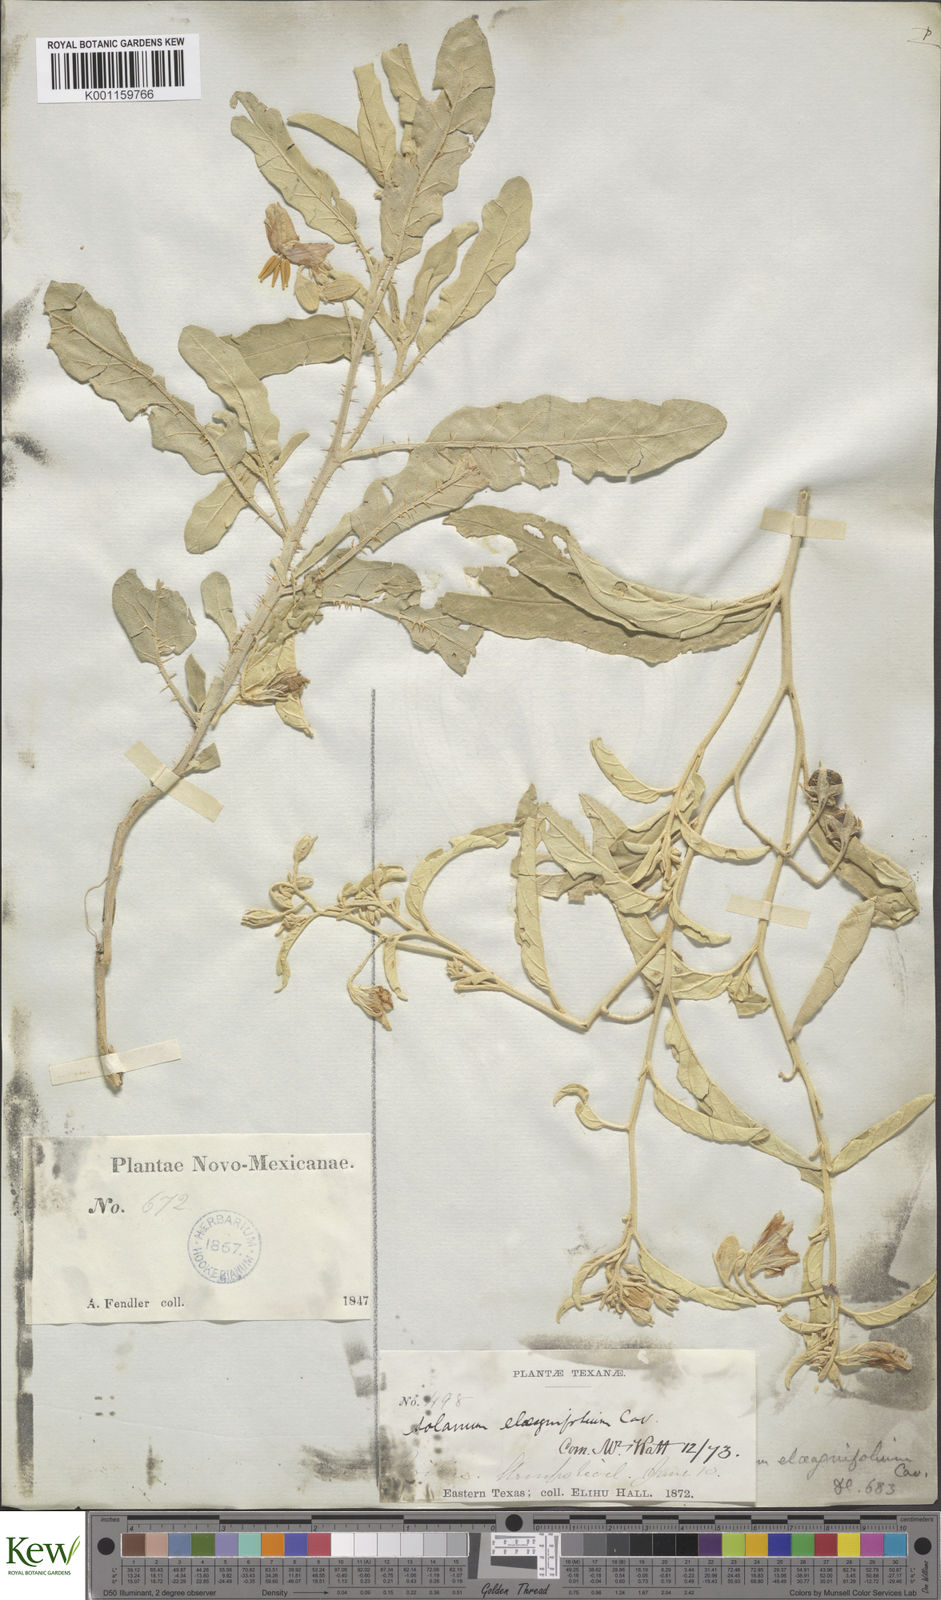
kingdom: Plantae
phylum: Tracheophyta
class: Magnoliopsida
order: Solanales
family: Solanaceae
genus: Solanum
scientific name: Solanum
